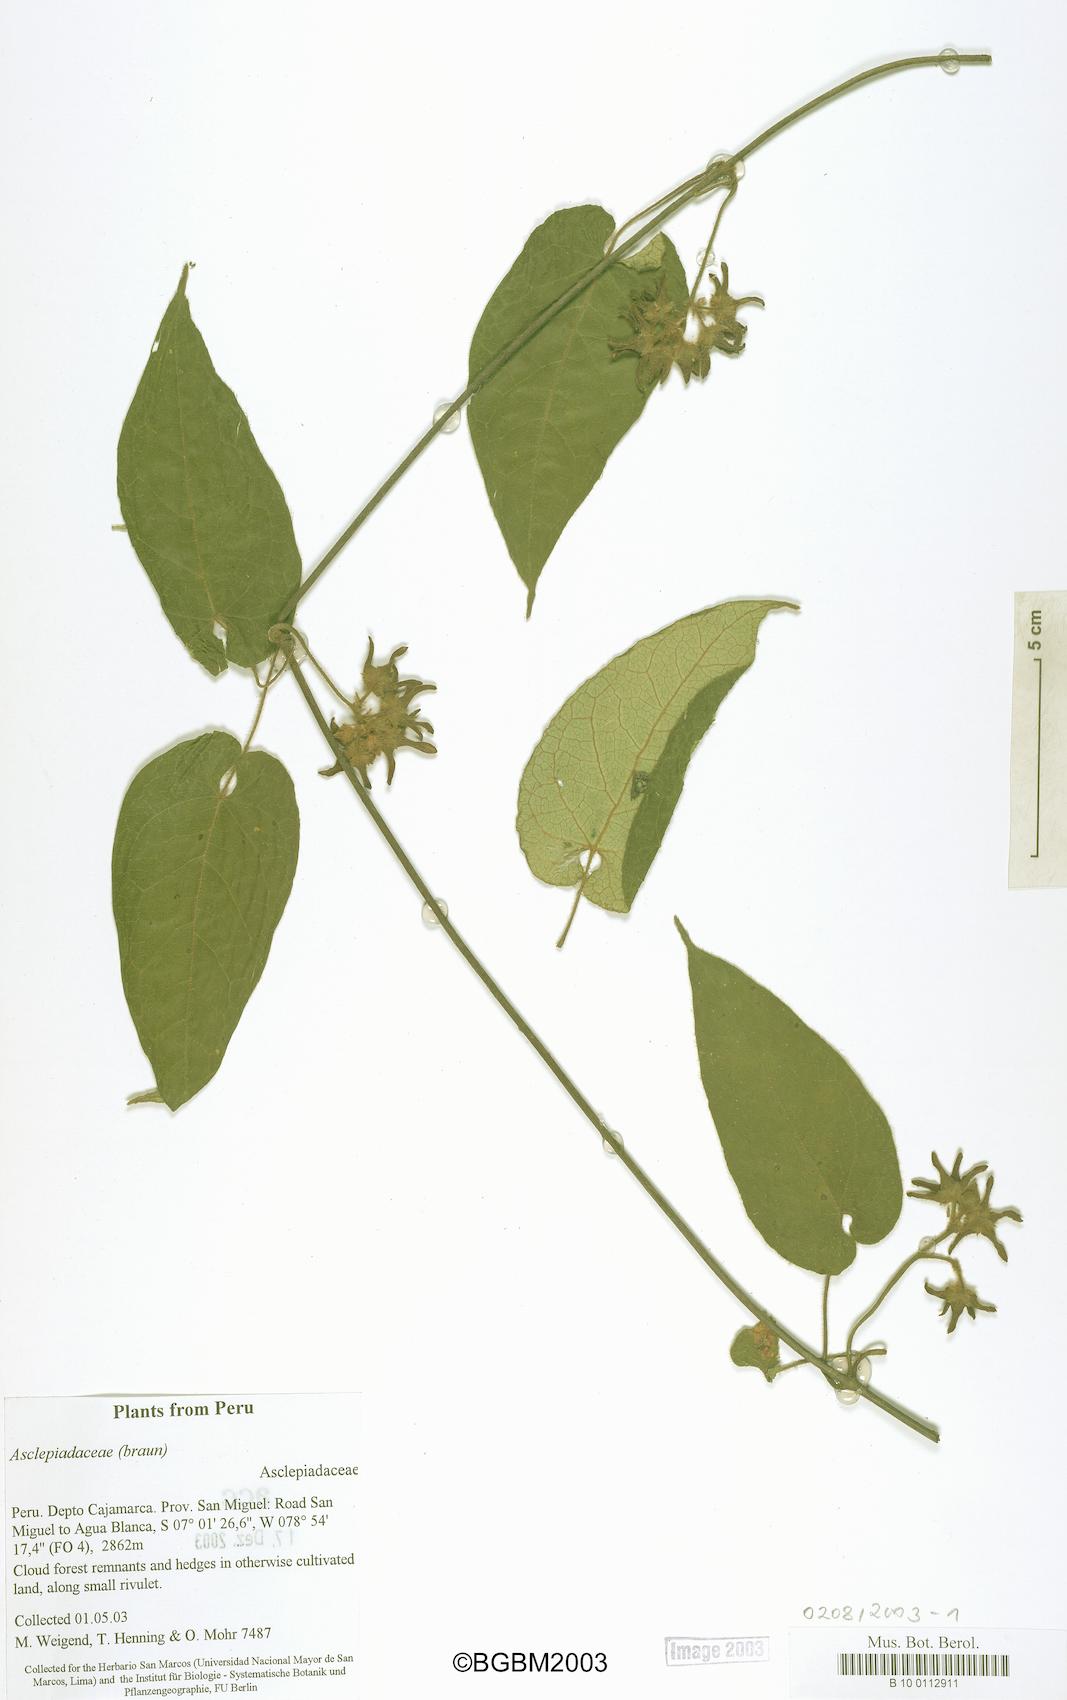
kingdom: Plantae
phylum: Tracheophyta
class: Magnoliopsida
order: Gentianales
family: Apocynaceae
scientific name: Apocynaceae
